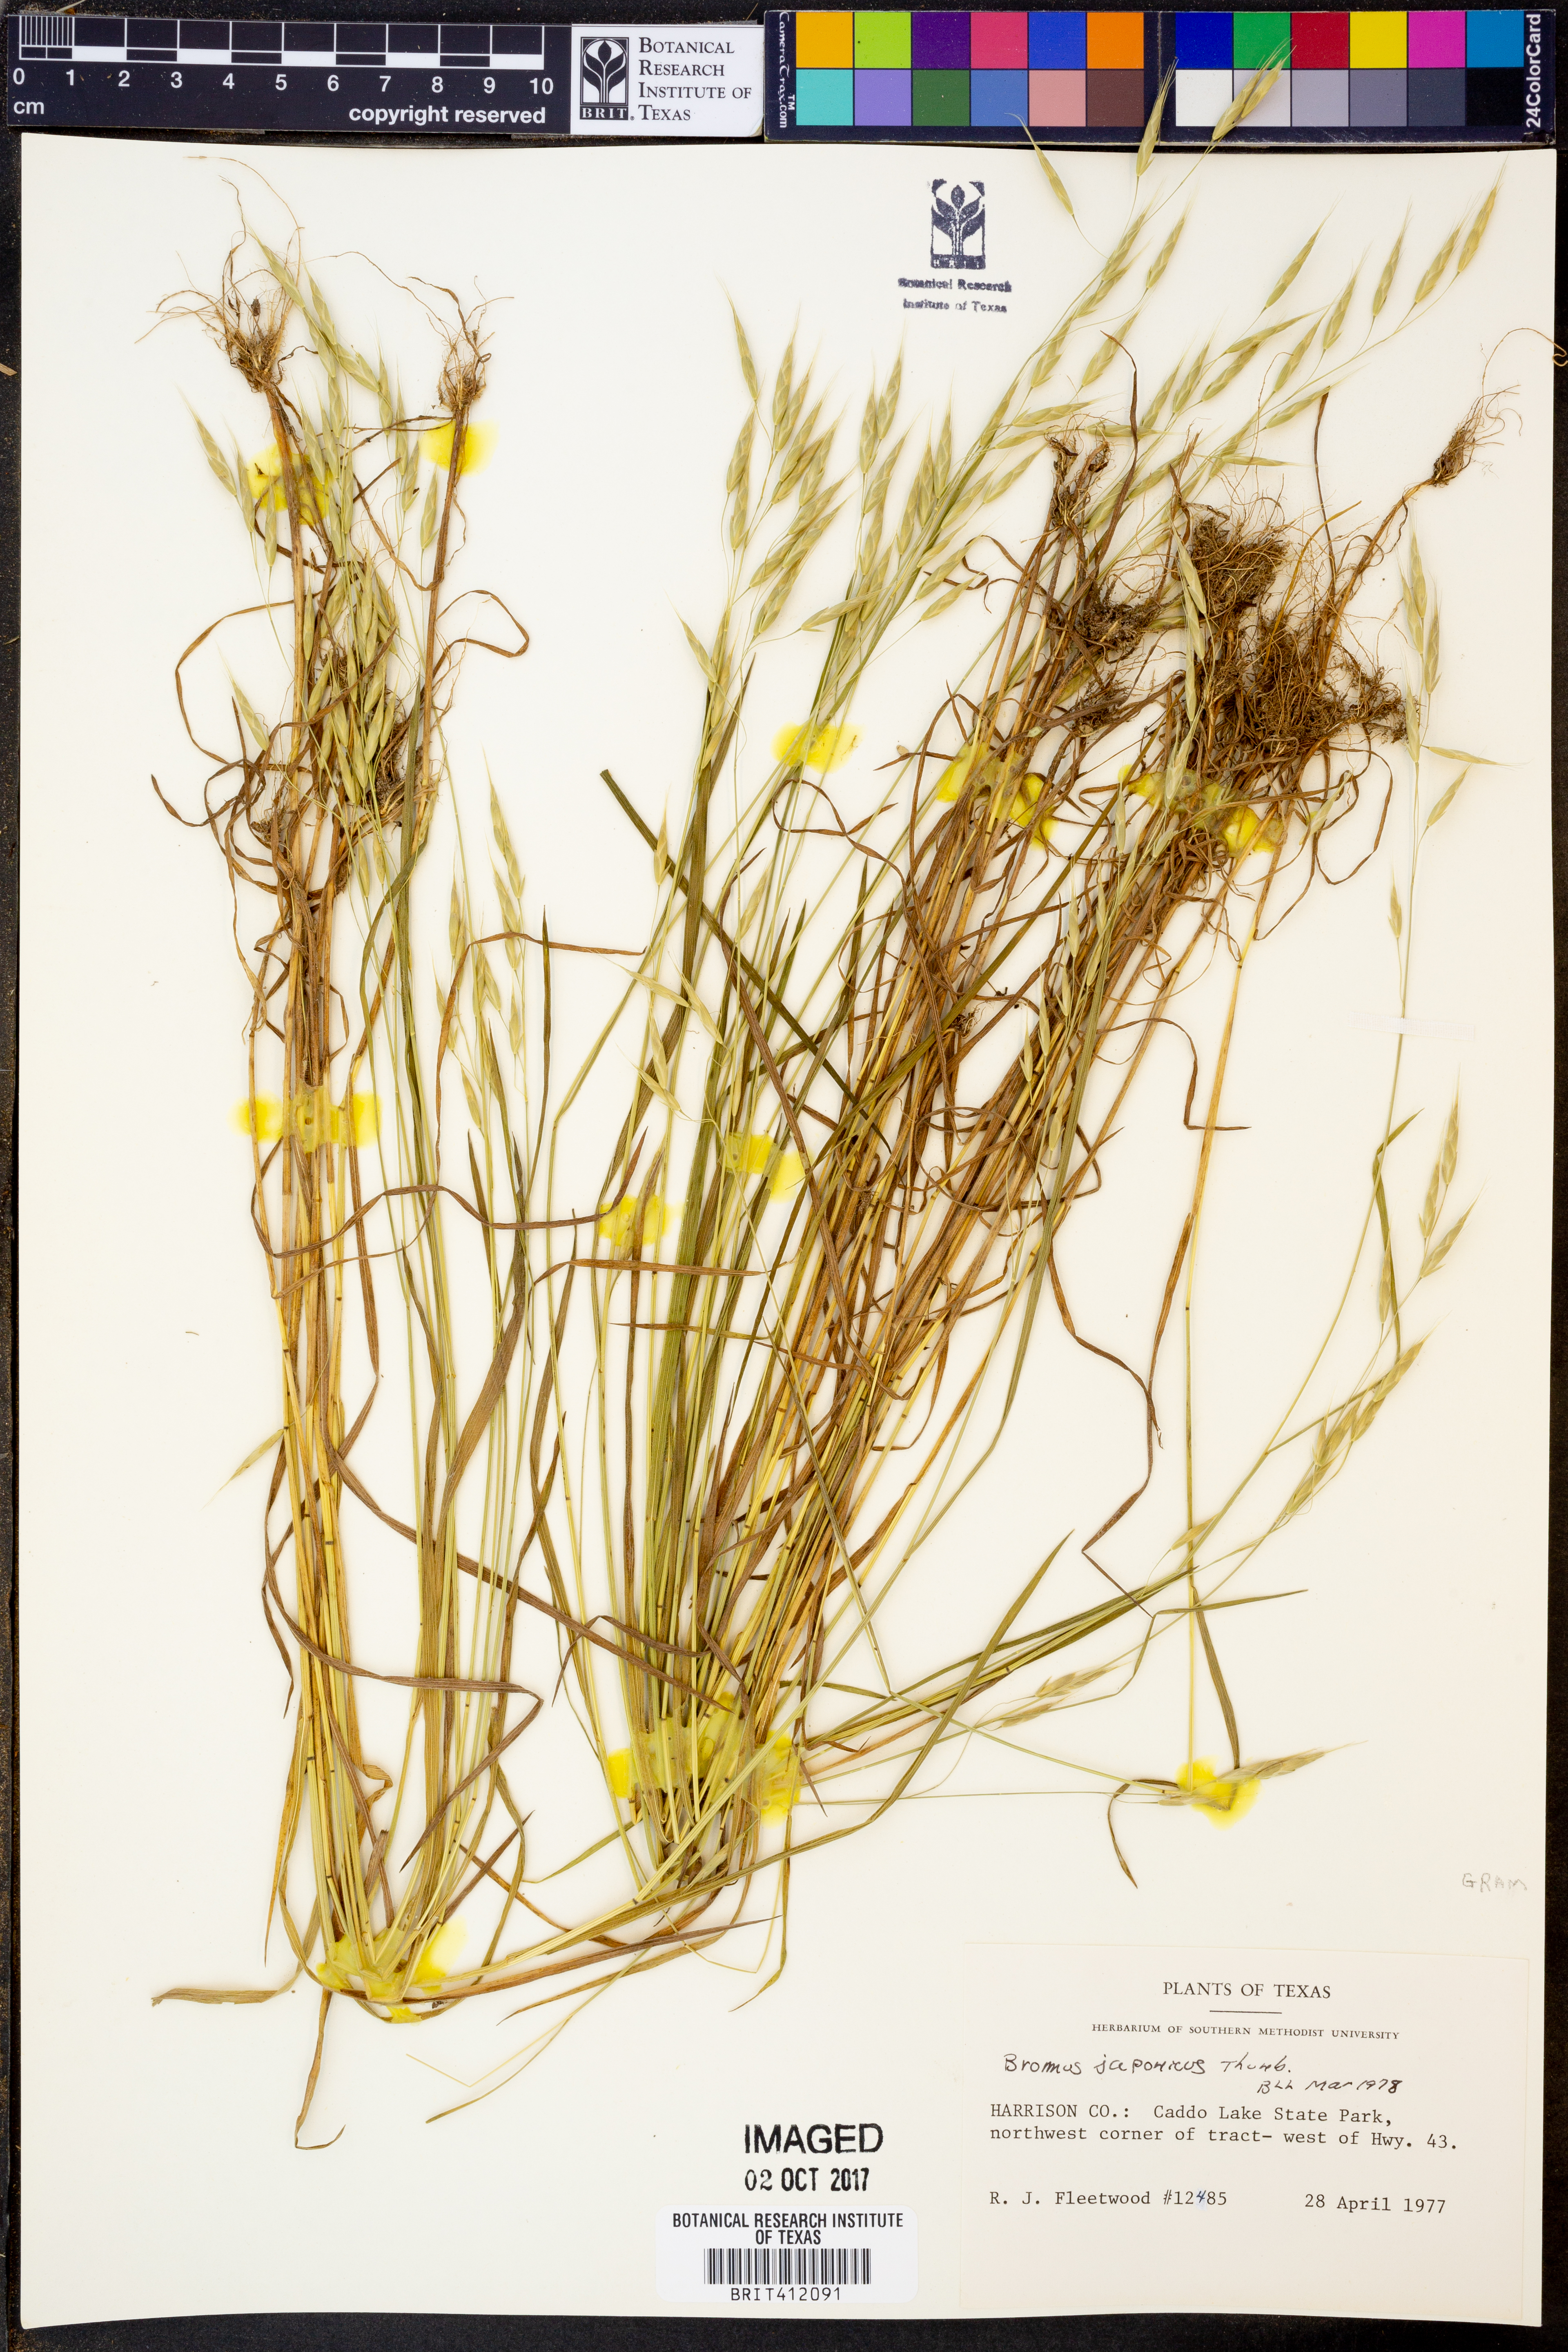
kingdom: Plantae
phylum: Tracheophyta
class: Liliopsida
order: Poales
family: Poaceae
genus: Bromus
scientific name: Bromus japonicus
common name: Japanese brome
